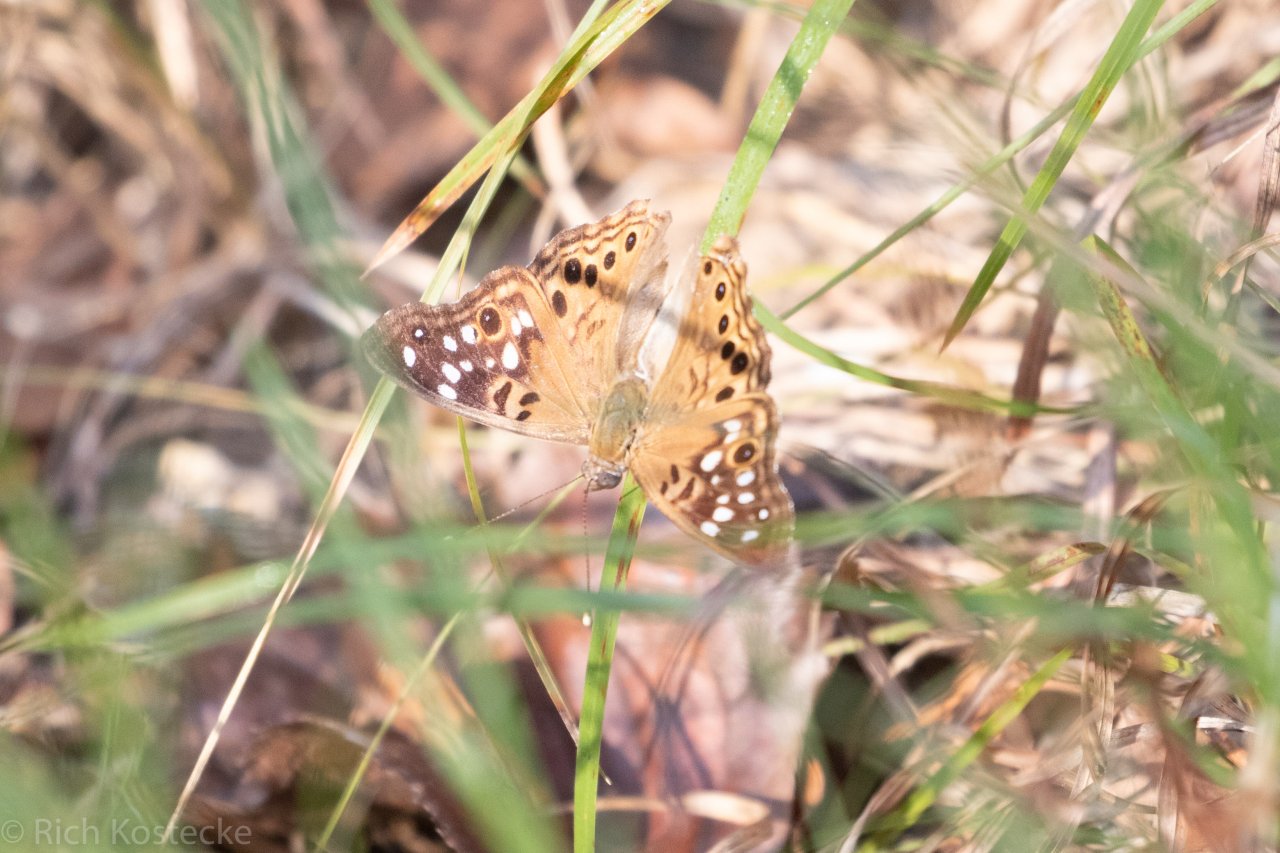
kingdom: Animalia
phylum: Arthropoda
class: Insecta
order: Lepidoptera
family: Nymphalidae
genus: Asterocampa
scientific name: Asterocampa celtis
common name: Hackberry Emperor
